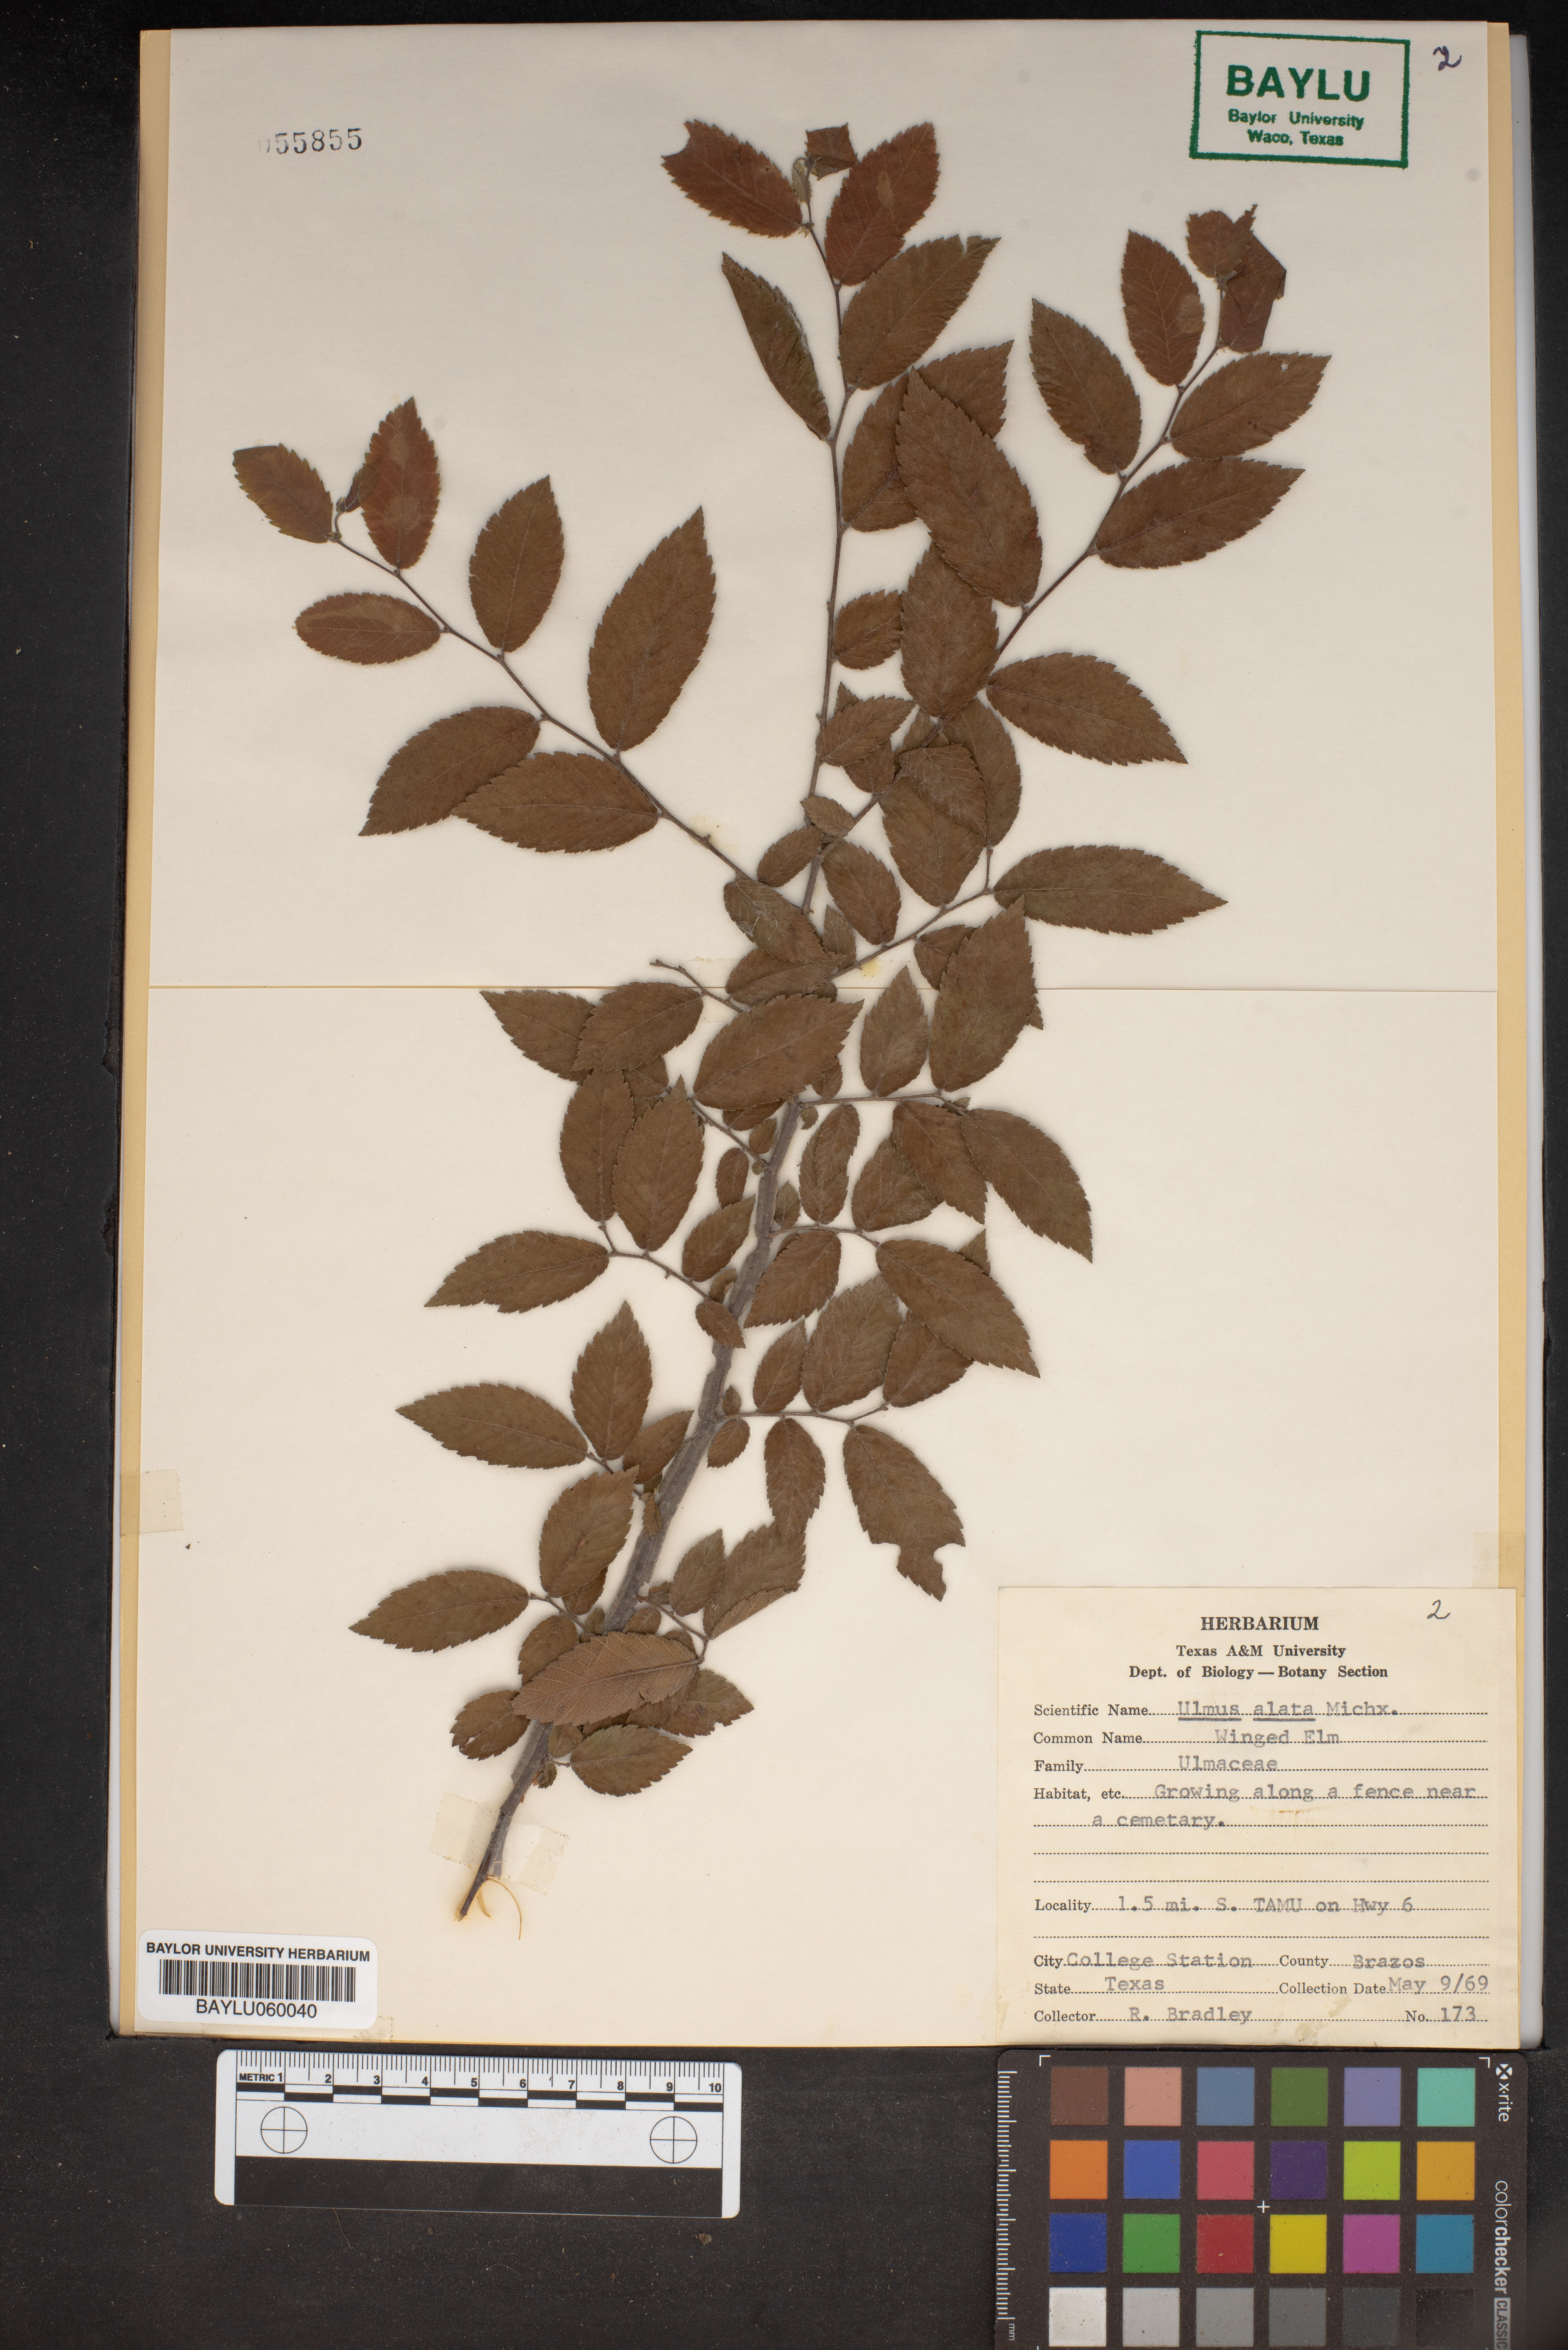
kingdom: Plantae
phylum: Tracheophyta
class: Magnoliopsida
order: Rosales
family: Ulmaceae
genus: Ulmus
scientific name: Ulmus alata
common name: Winged elm
